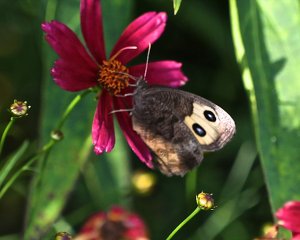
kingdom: Animalia
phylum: Arthropoda
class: Insecta
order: Lepidoptera
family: Nymphalidae
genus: Cercyonis
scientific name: Cercyonis pegala
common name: Common Wood-Nymph
